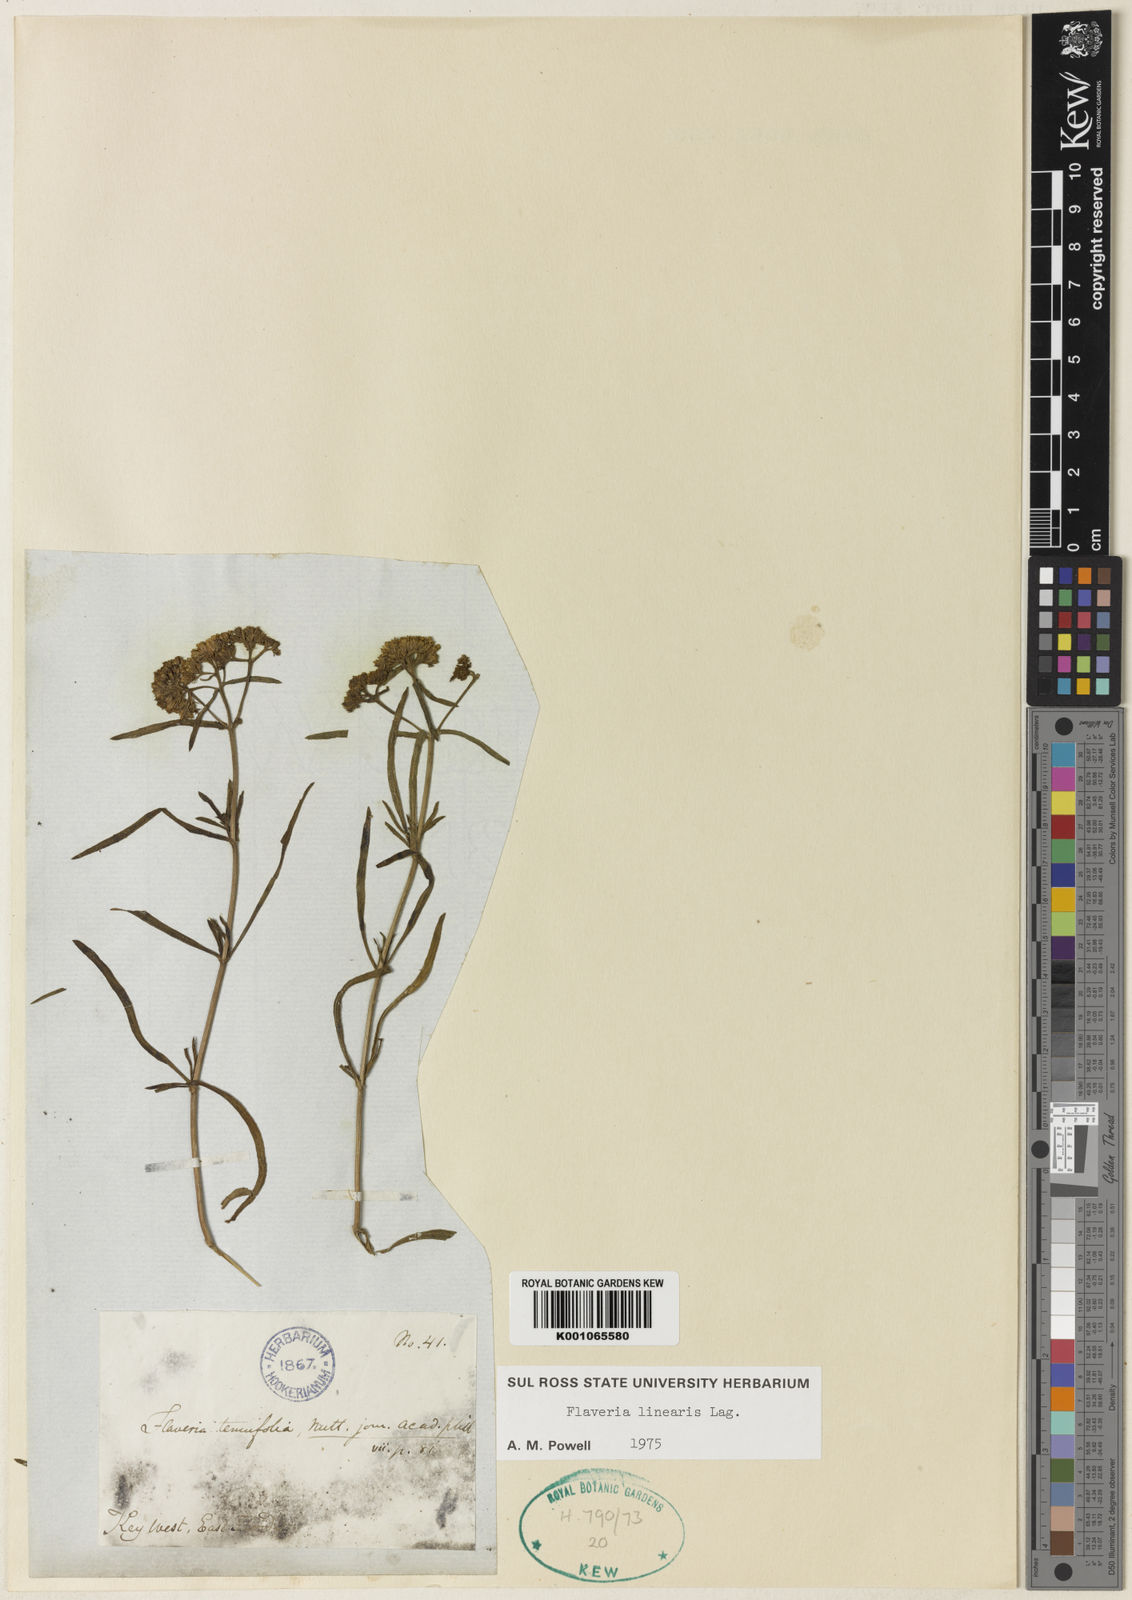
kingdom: Plantae
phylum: Tracheophyta
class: Magnoliopsida
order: Asterales
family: Asteraceae
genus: Flaveria
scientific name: Flaveria linearis
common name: Yellowtop
